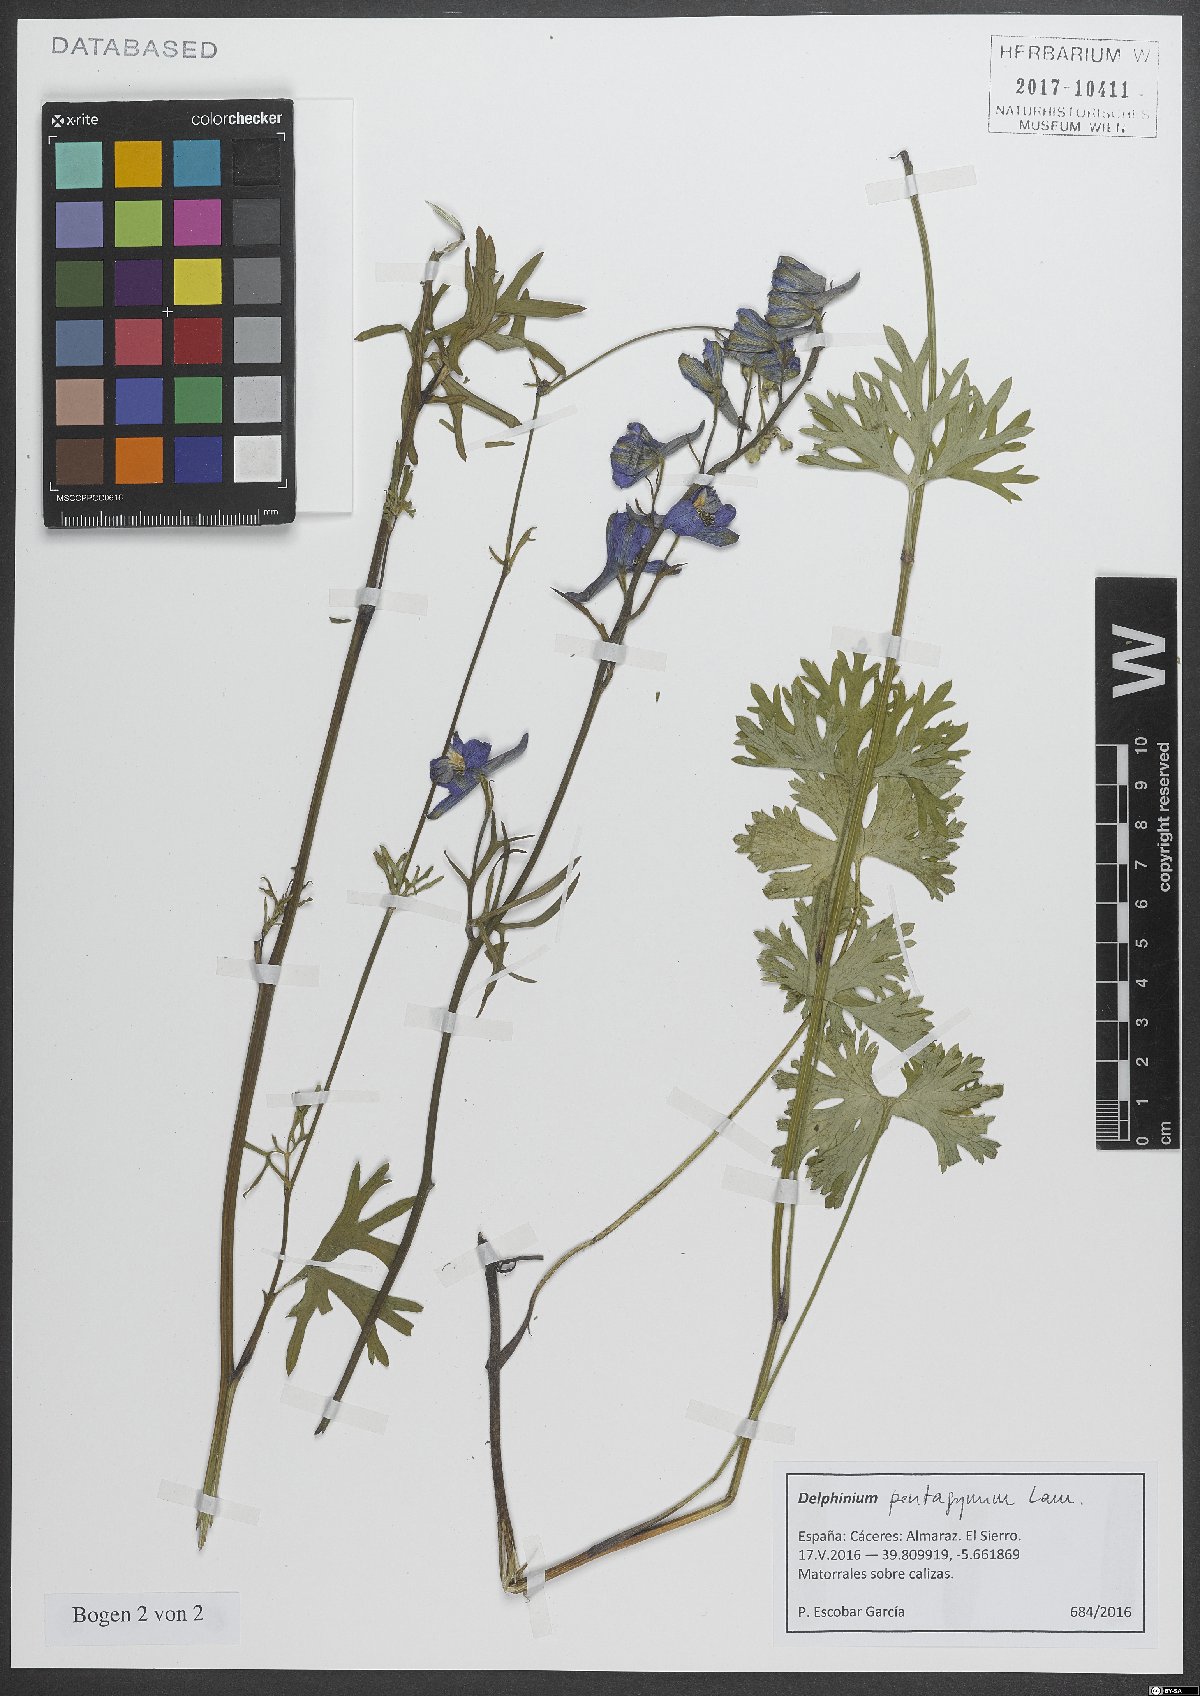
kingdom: Plantae
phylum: Tracheophyta
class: Magnoliopsida
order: Ranunculales
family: Ranunculaceae
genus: Delphinium
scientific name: Delphinium pentagynum
